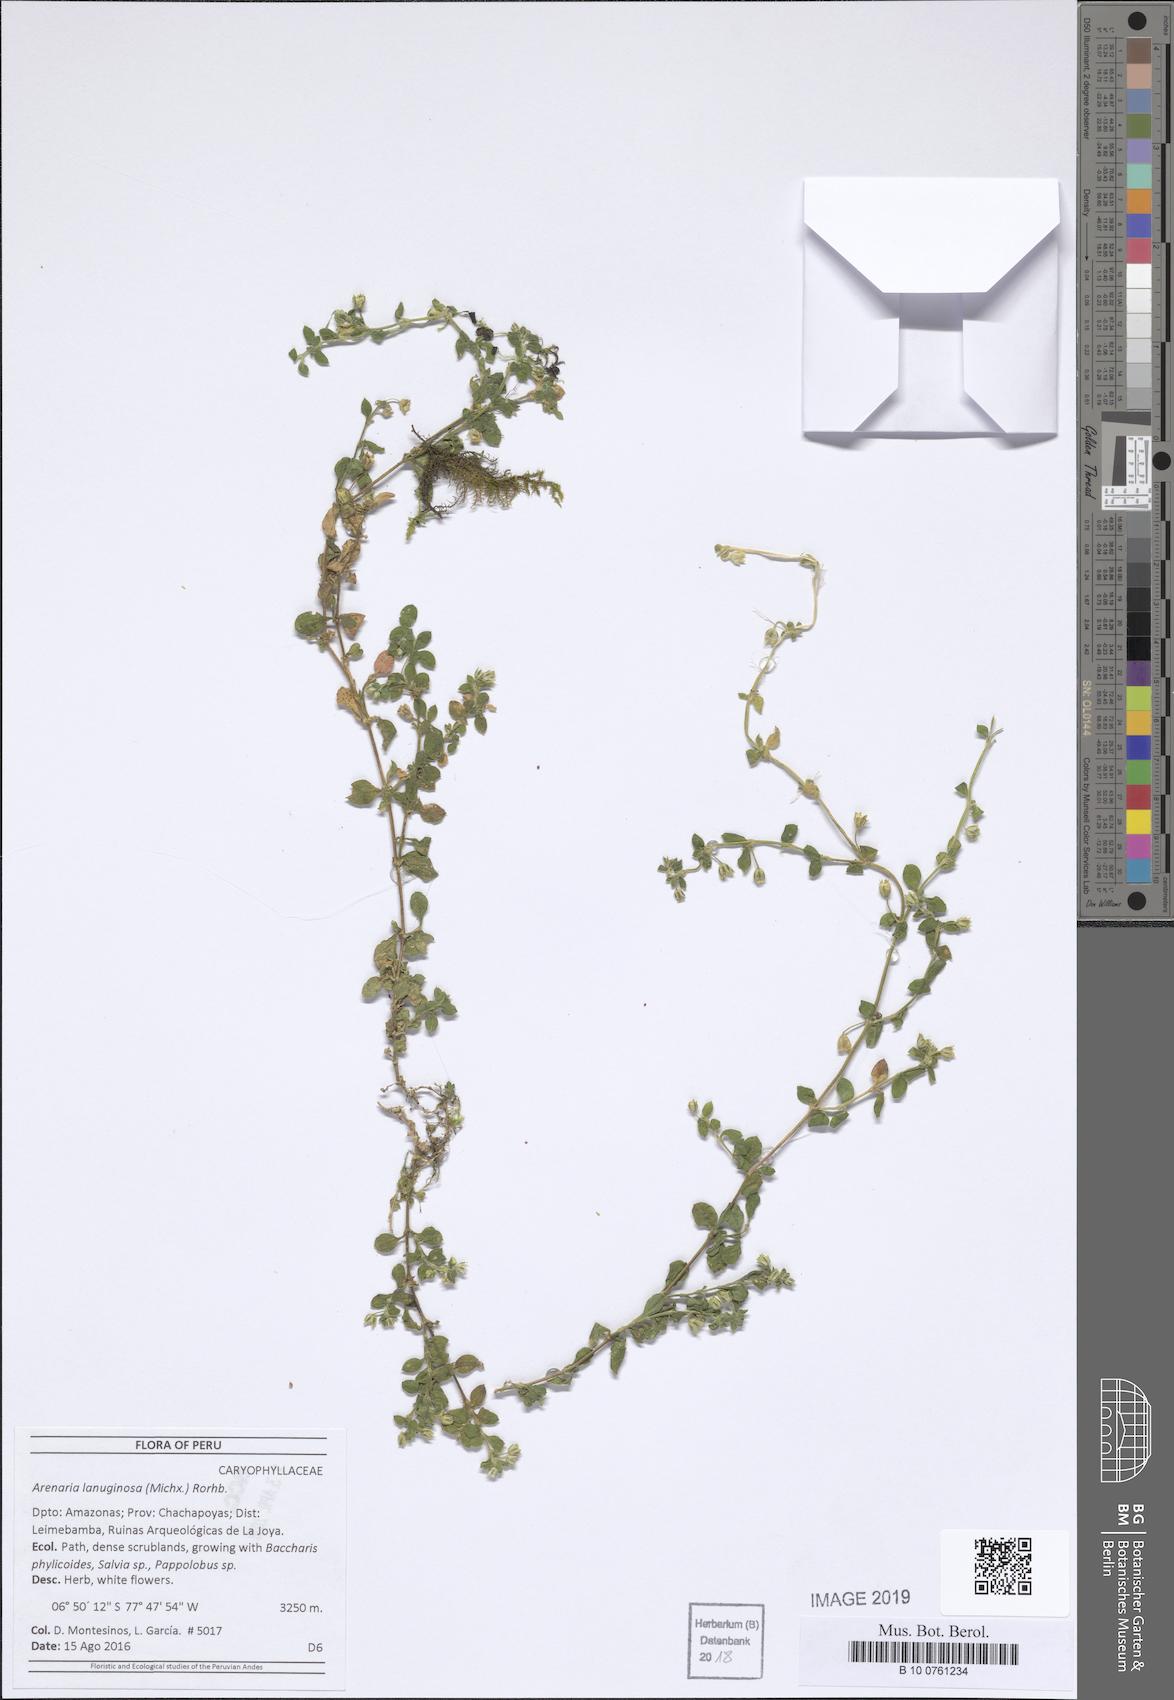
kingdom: Plantae
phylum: Tracheophyta
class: Magnoliopsida
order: Caryophyllales
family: Caryophyllaceae
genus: Arenaria
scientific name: Arenaria lanuginosa
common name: Spread sandwort
